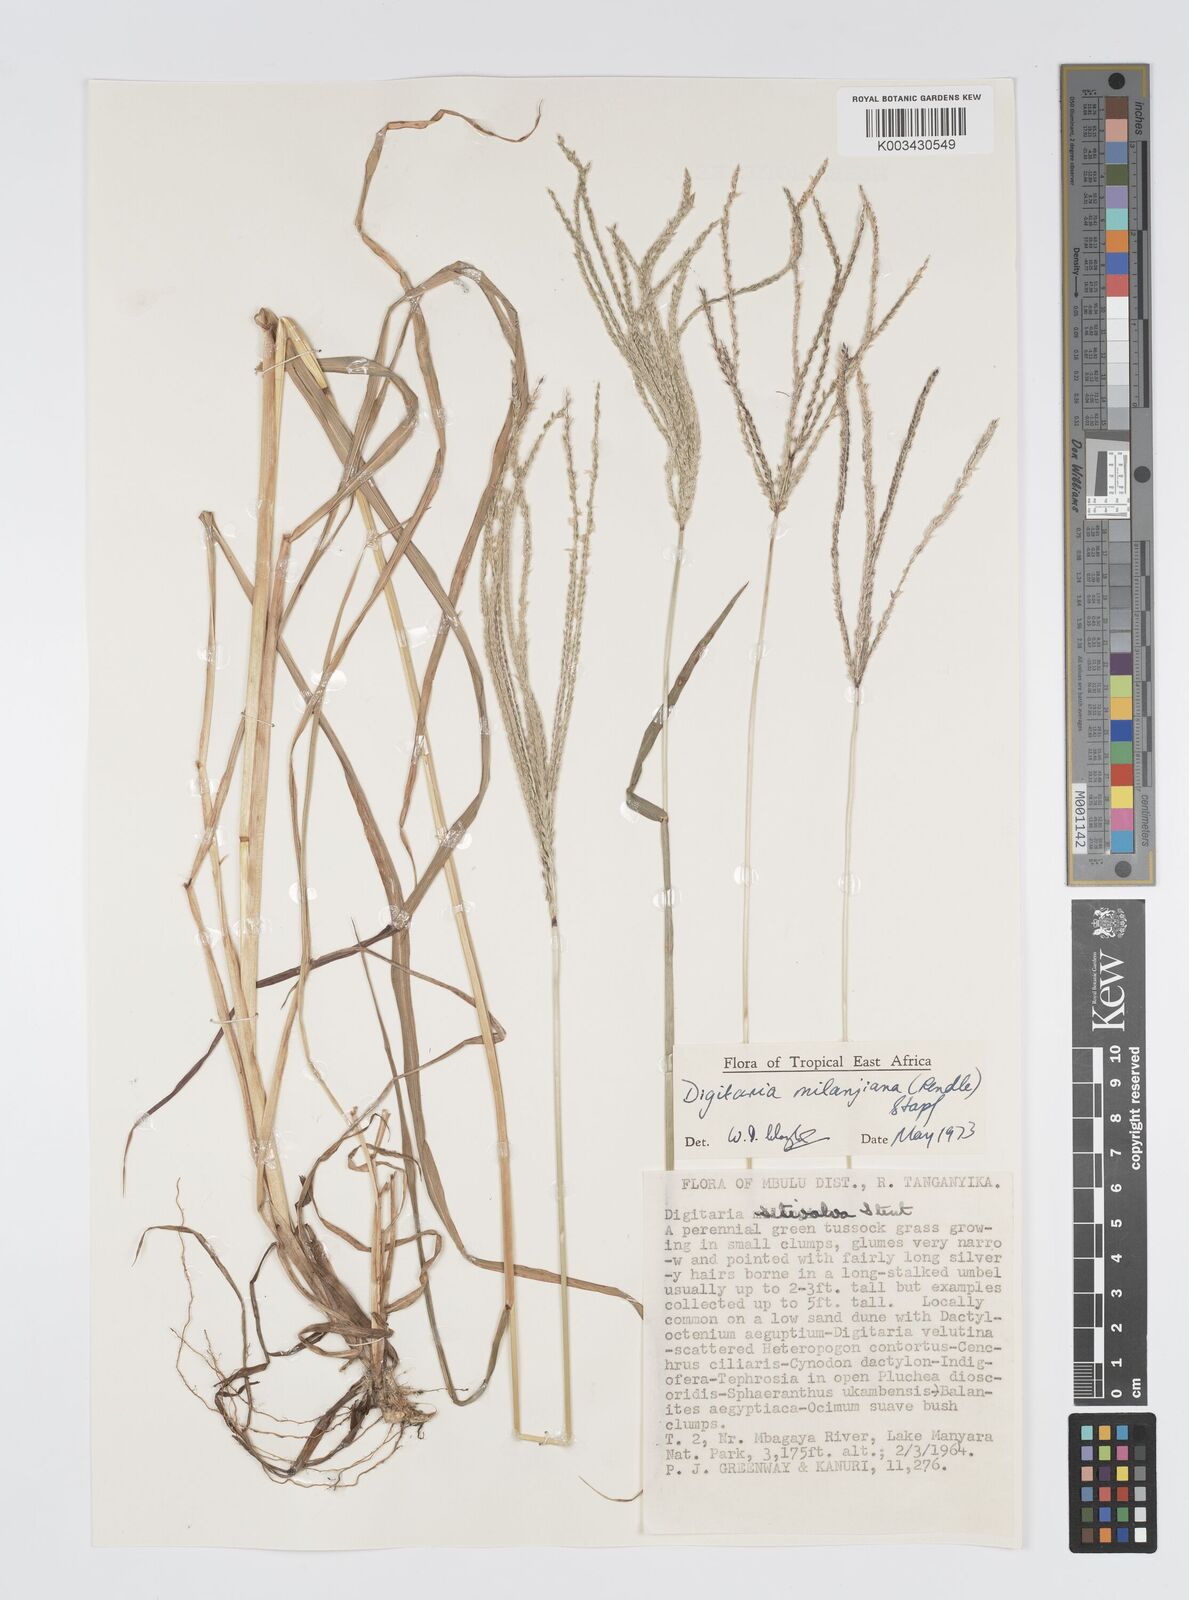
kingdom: Plantae
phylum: Tracheophyta
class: Liliopsida
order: Poales
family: Poaceae
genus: Digitaria
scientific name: Digitaria milanjiana
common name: Madagascar crabgrass
